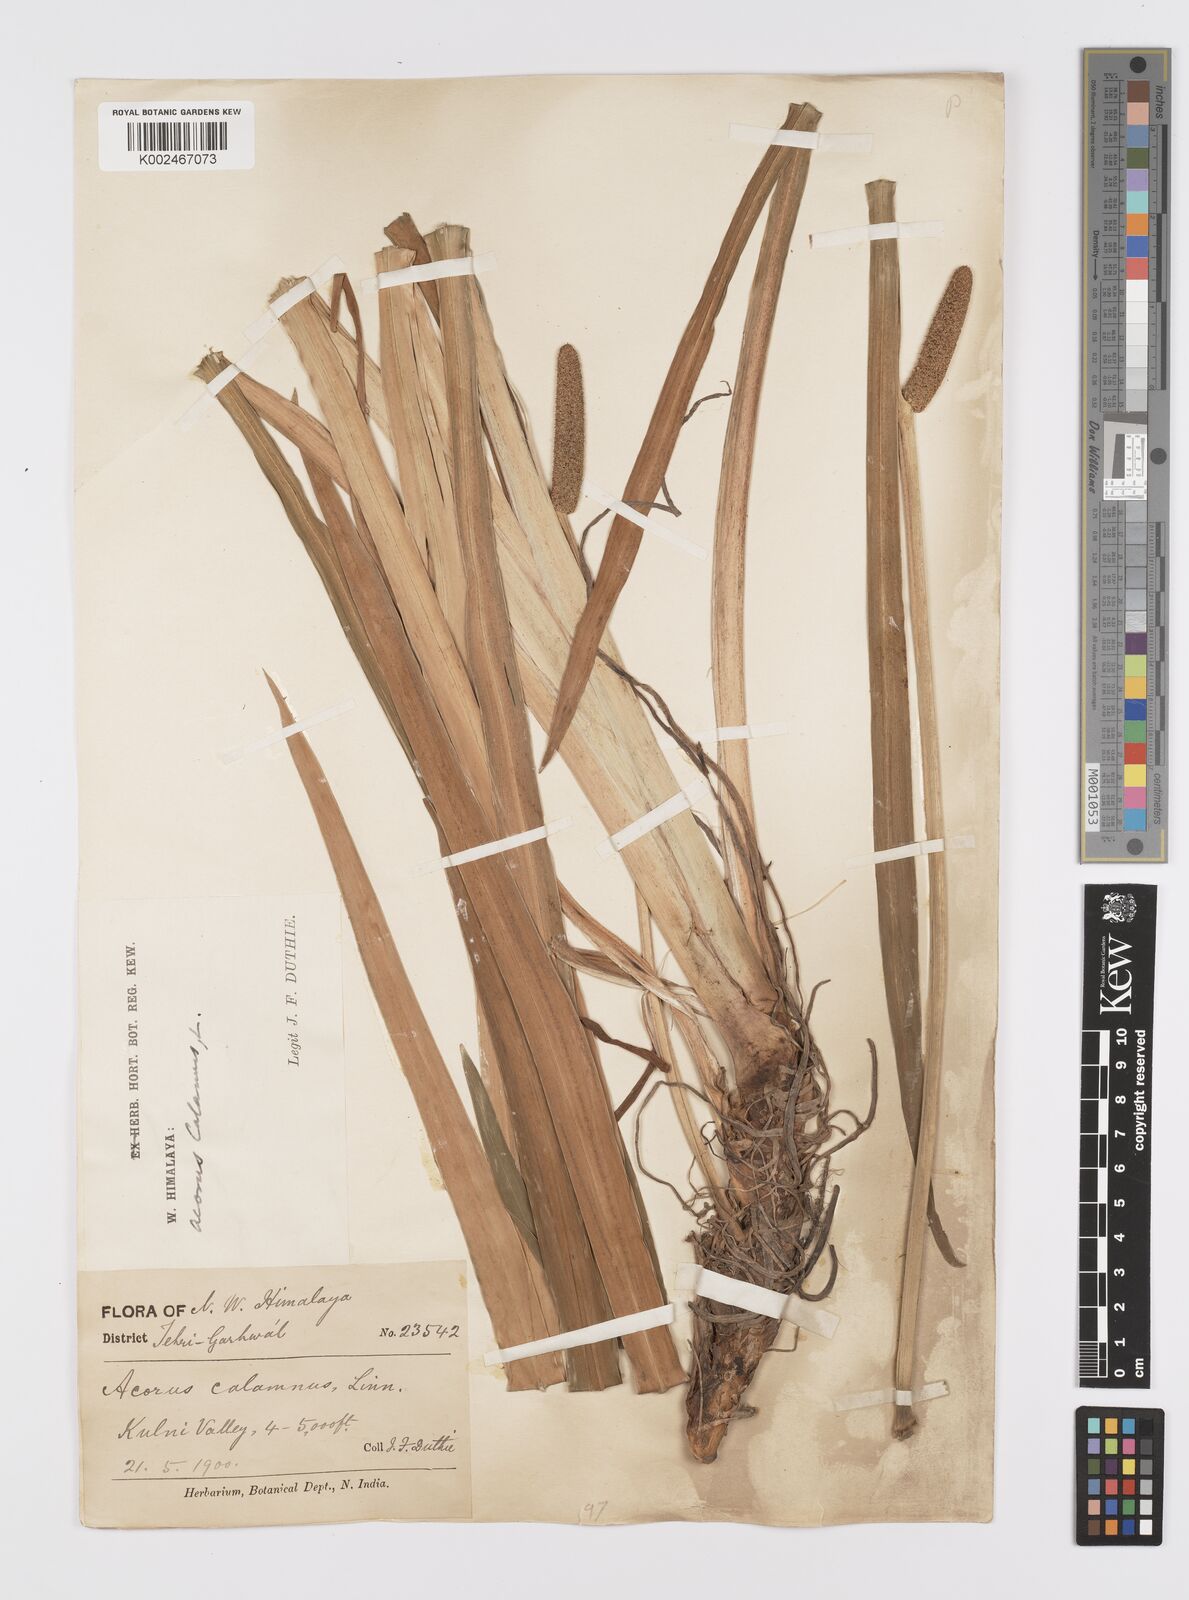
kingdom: Plantae
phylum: Tracheophyta
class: Liliopsida
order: Acorales
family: Acoraceae
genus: Acorus
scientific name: Acorus calamus
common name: Sweet-flag
